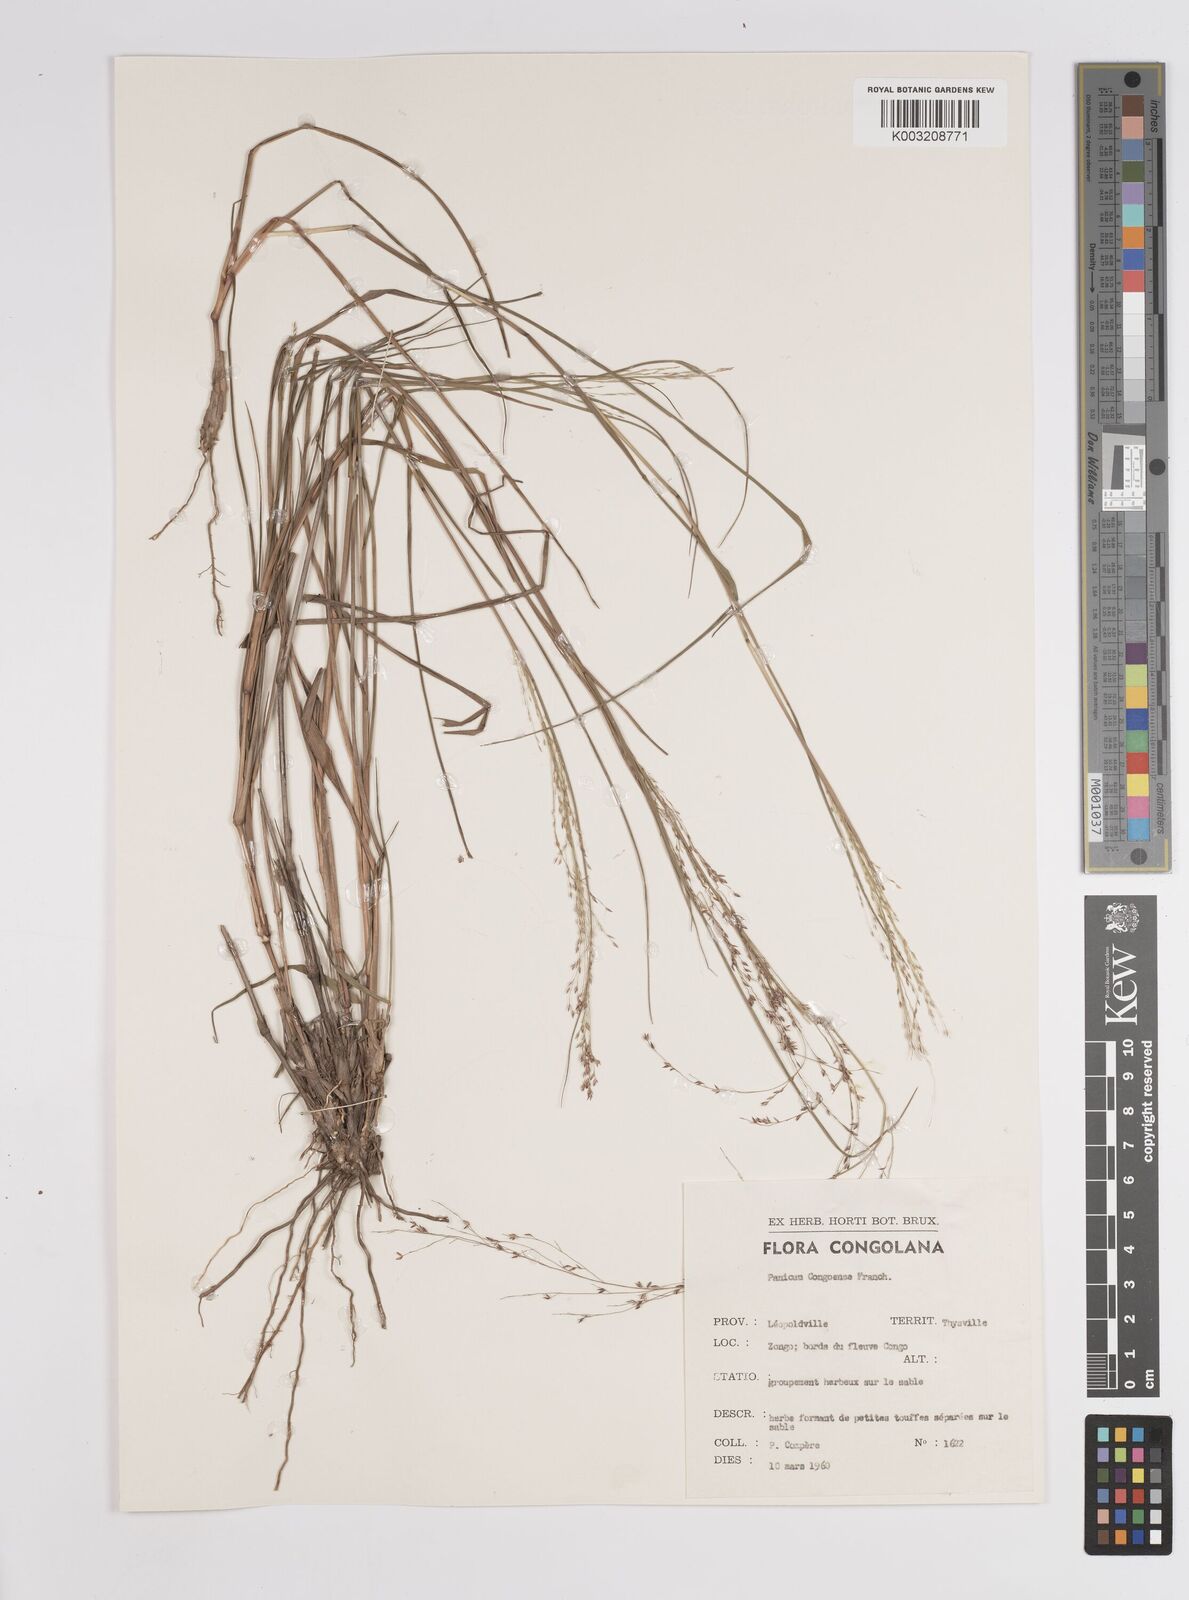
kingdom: Plantae
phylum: Tracheophyta
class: Liliopsida
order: Poales
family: Poaceae
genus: Panicum
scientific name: Panicum genuflexum
